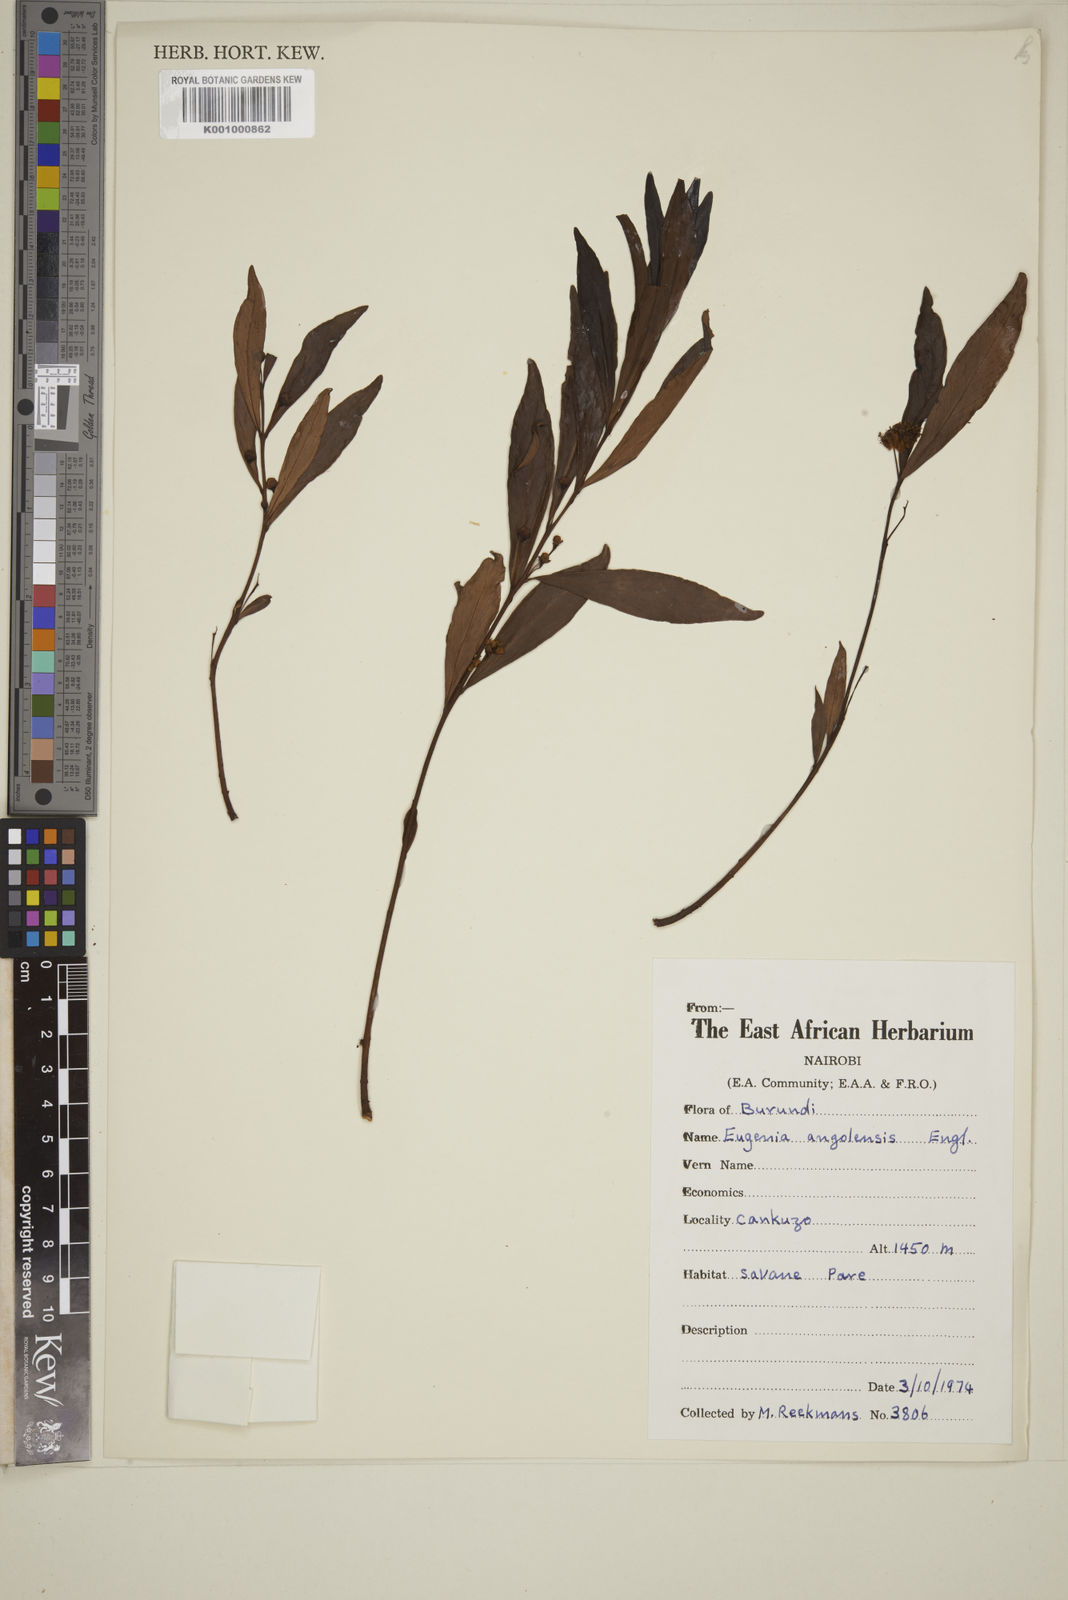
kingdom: Plantae
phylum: Tracheophyta
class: Magnoliopsida
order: Myrtales
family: Myrtaceae
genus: Eugenia
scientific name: Eugenia malangensis
